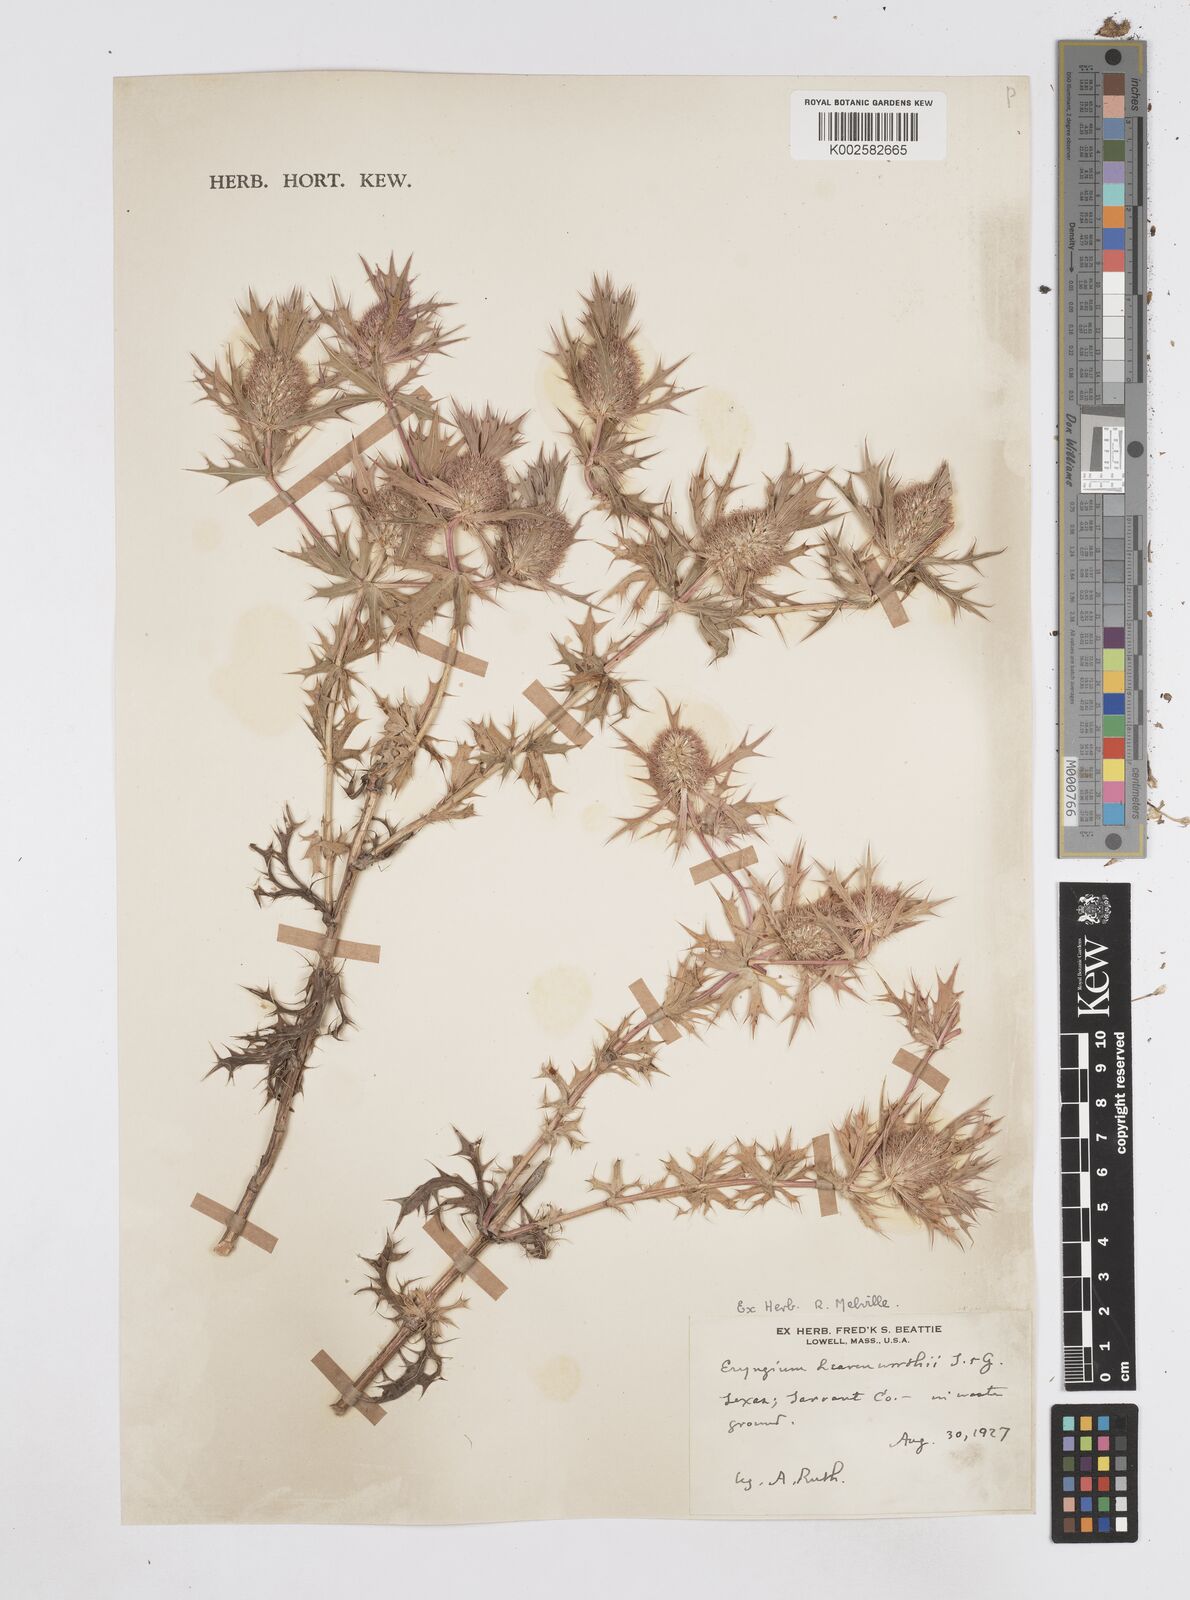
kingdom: Plantae
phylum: Tracheophyta
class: Magnoliopsida
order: Apiales
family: Apiaceae
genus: Eryngium
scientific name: Eryngium leavenworthii
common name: Leavenworth's eryngo
